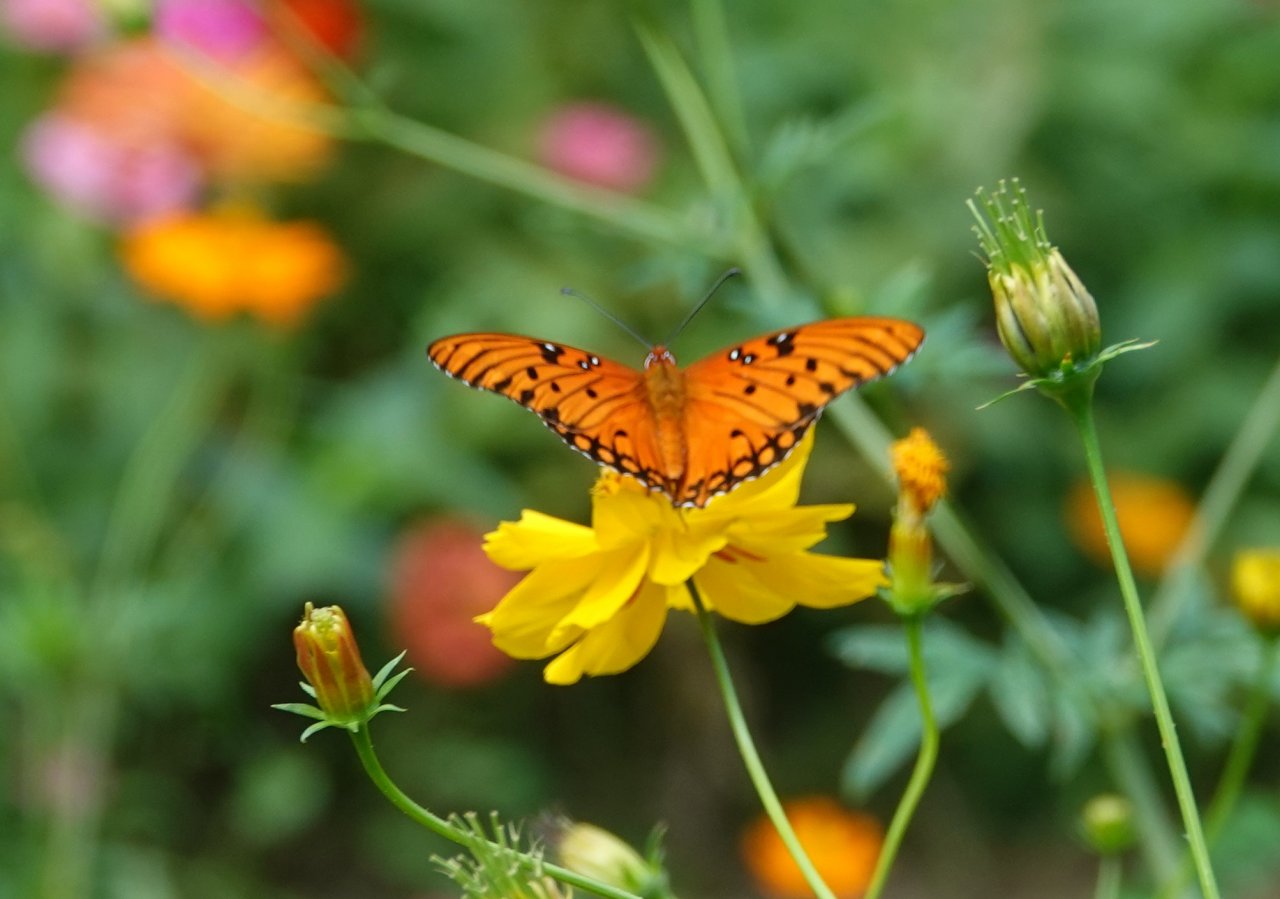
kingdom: Animalia
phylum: Arthropoda
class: Insecta
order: Lepidoptera
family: Nymphalidae
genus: Dione
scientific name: Dione vanillae
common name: Gulf Fritillary
